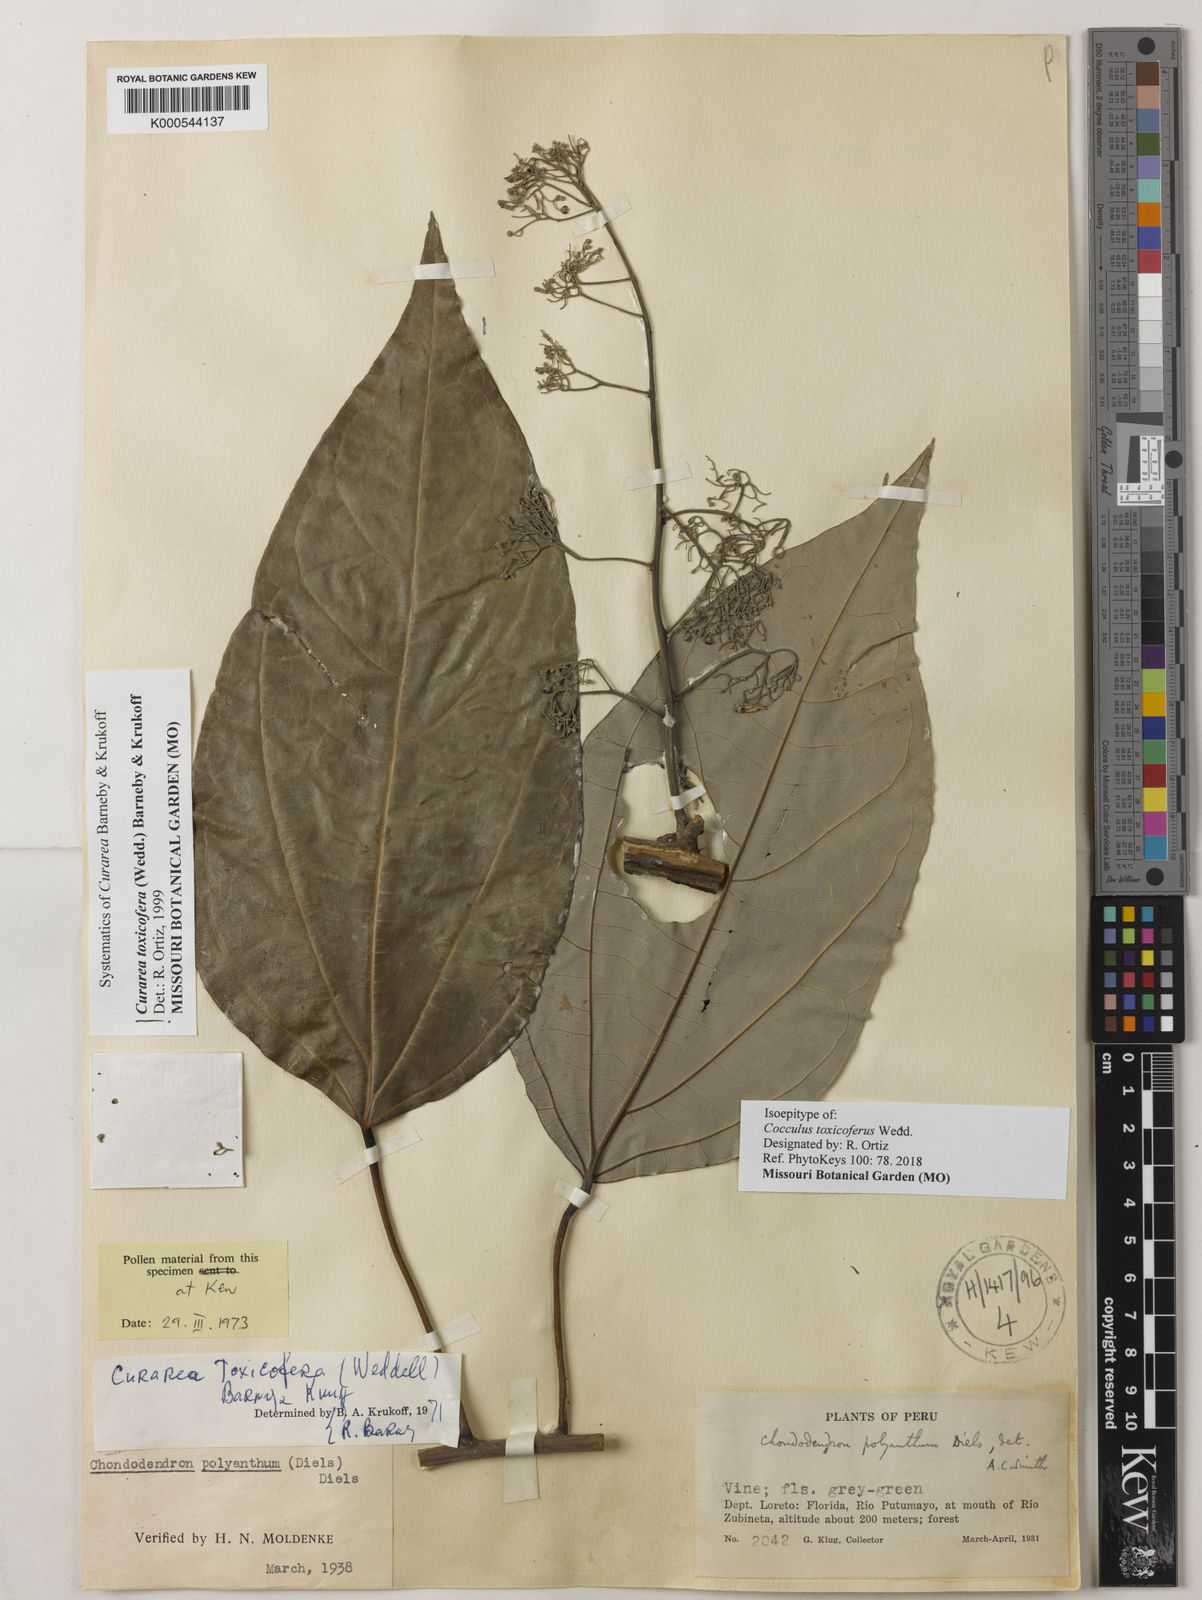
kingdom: Plantae
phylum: Tracheophyta
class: Magnoliopsida
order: Ranunculales
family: Menispermaceae
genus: Cocculus
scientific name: Cocculus
